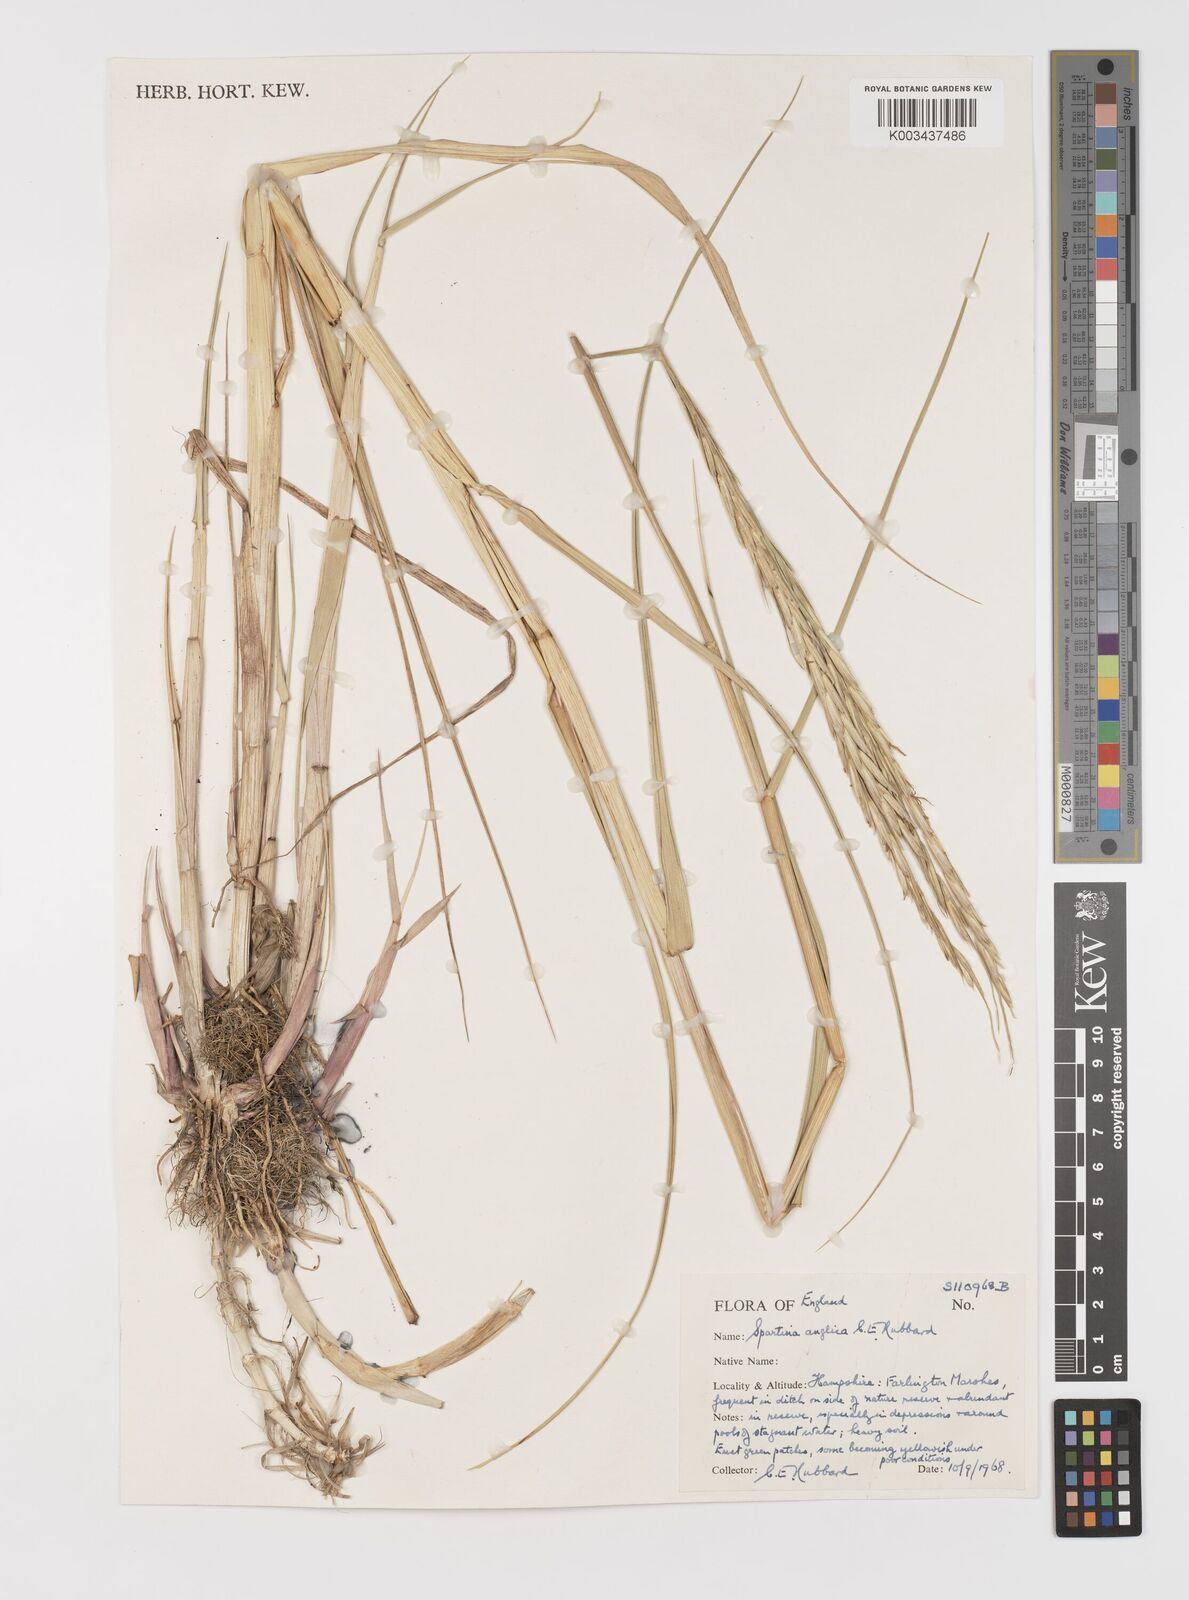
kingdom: Plantae
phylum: Tracheophyta
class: Liliopsida
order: Poales
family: Poaceae
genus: Sporobolus
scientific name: Sporobolus anglicus
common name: English cordgrass
